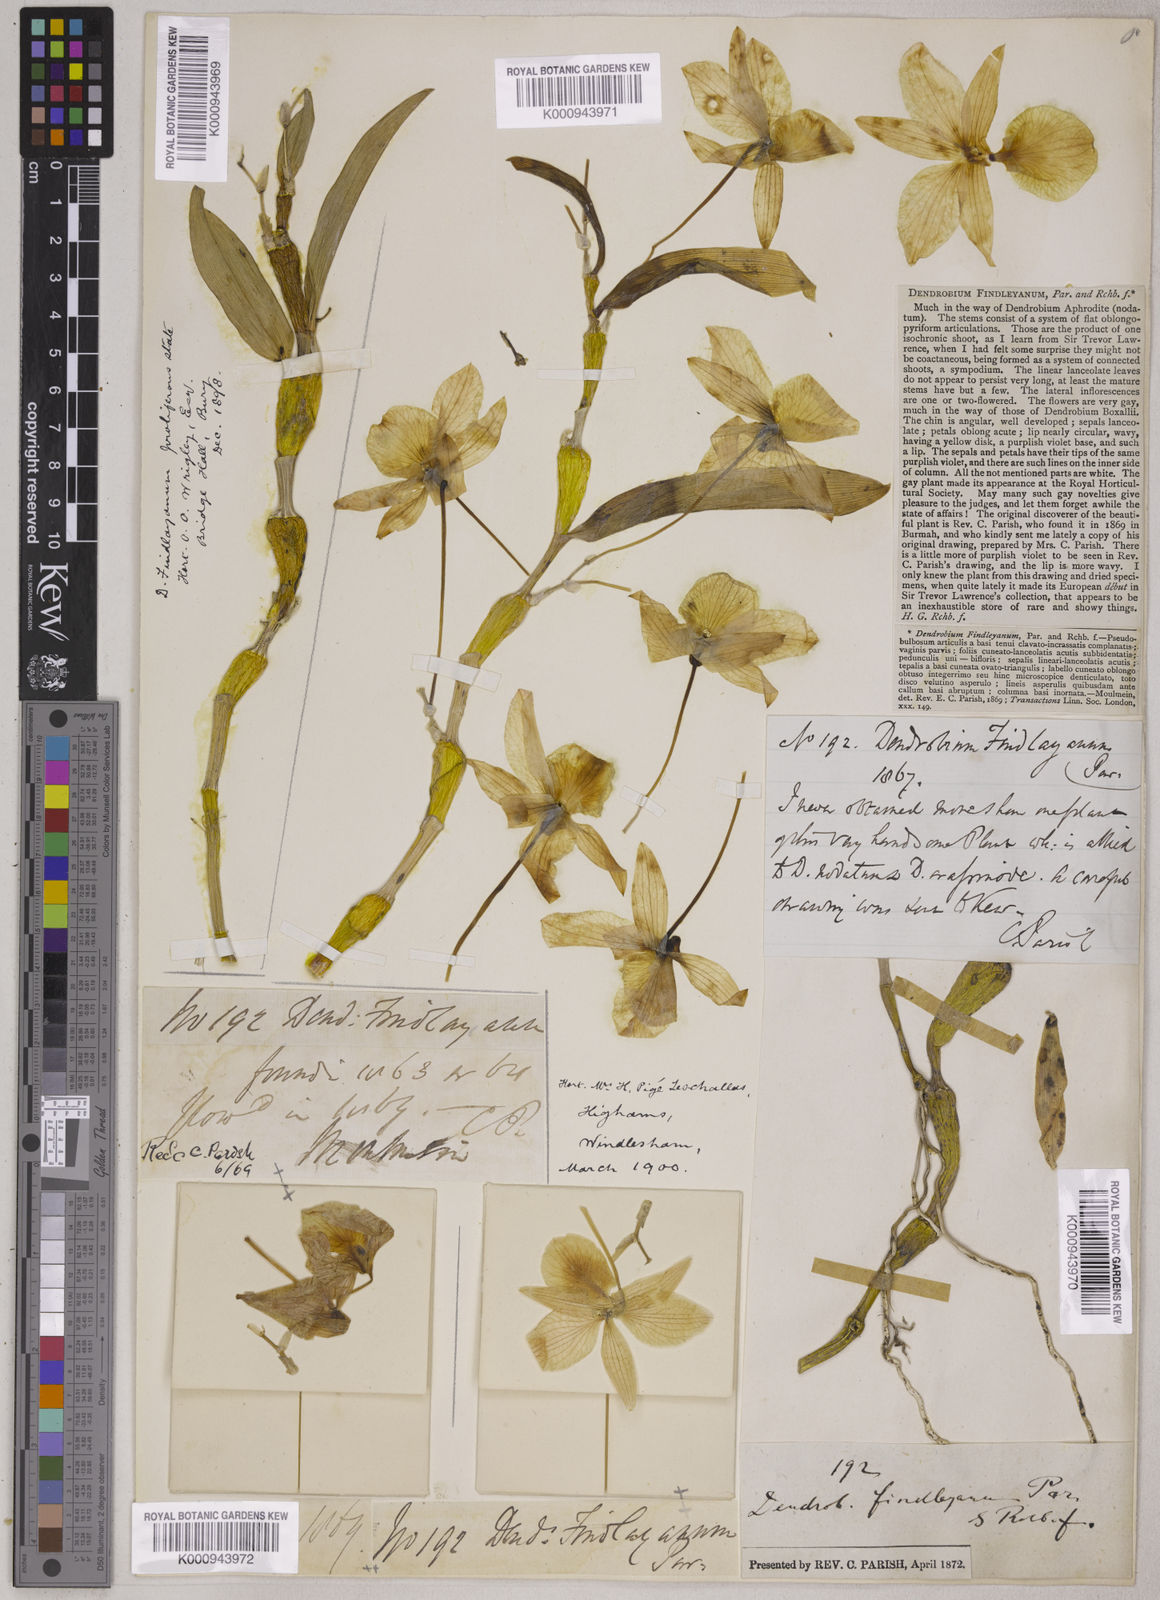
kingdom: Plantae
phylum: Tracheophyta
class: Liliopsida
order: Asparagales
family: Orchidaceae
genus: Dendrobium
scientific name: Dendrobium findlayanum
